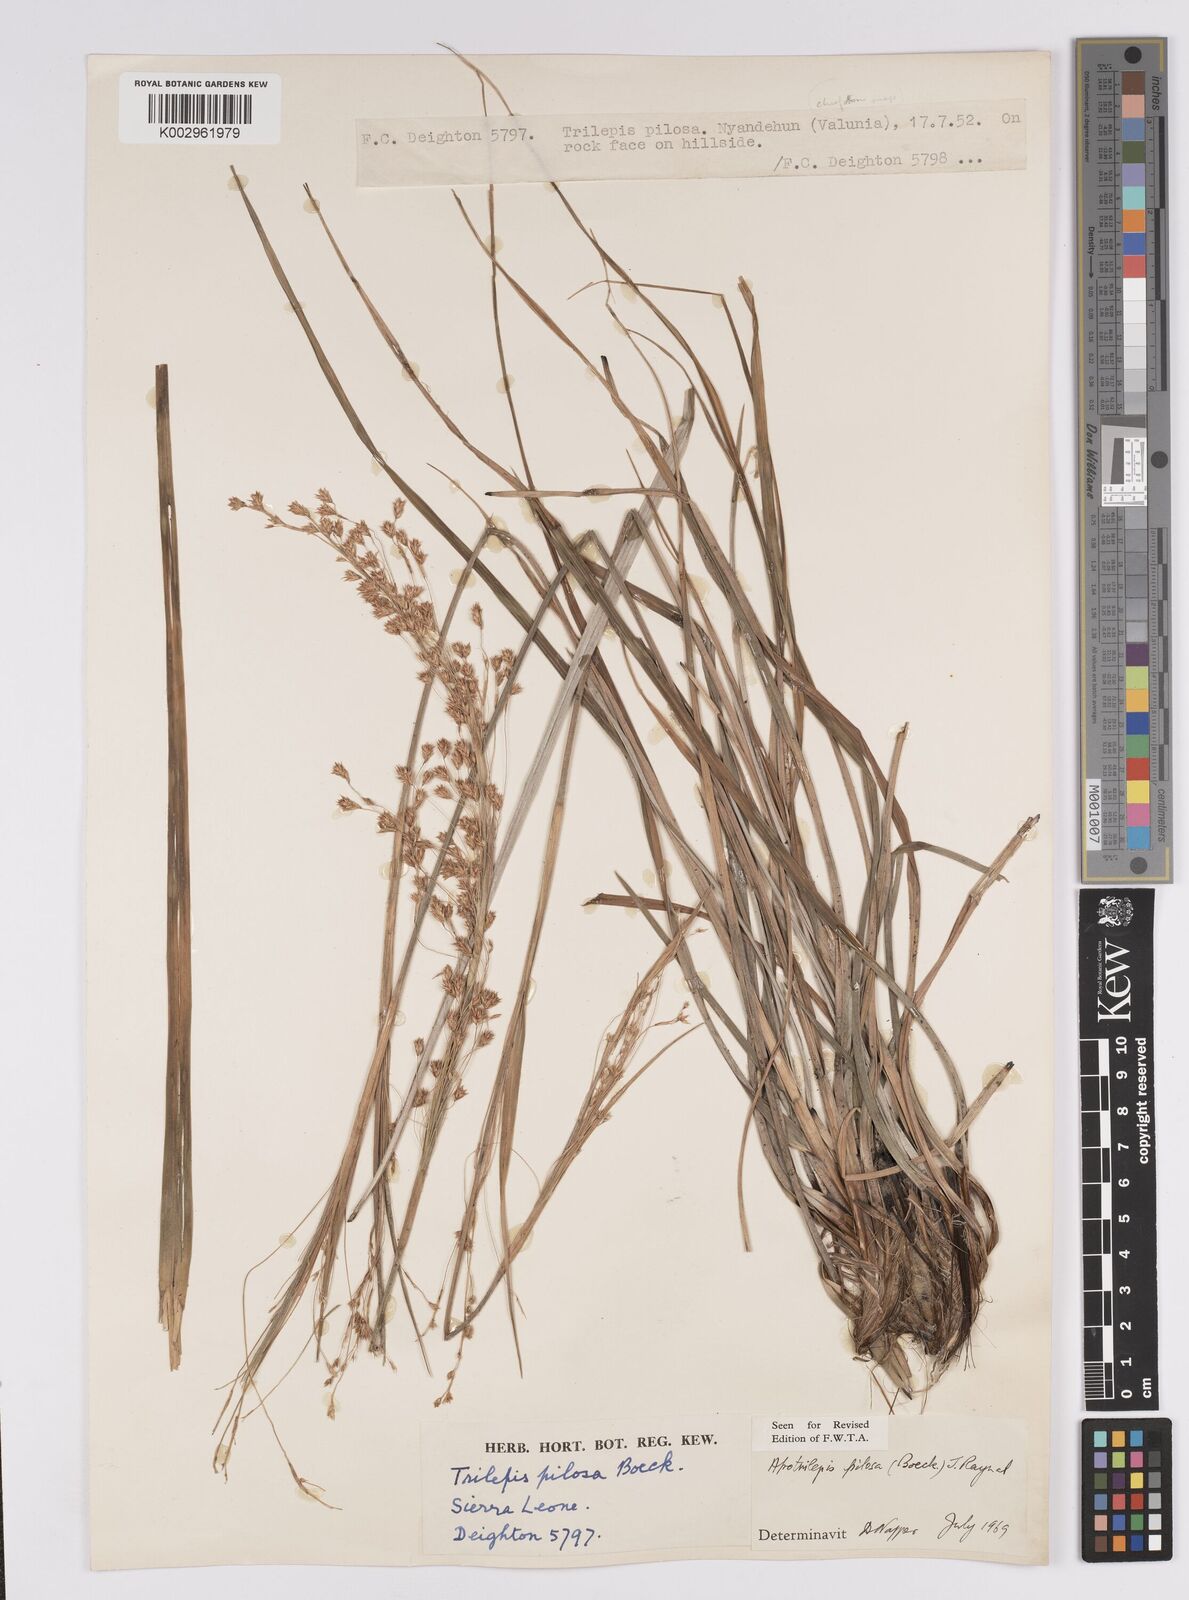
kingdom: Plantae
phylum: Tracheophyta
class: Liliopsida
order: Poales
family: Cyperaceae
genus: Afrotrilepis
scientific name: Afrotrilepis pilosa
